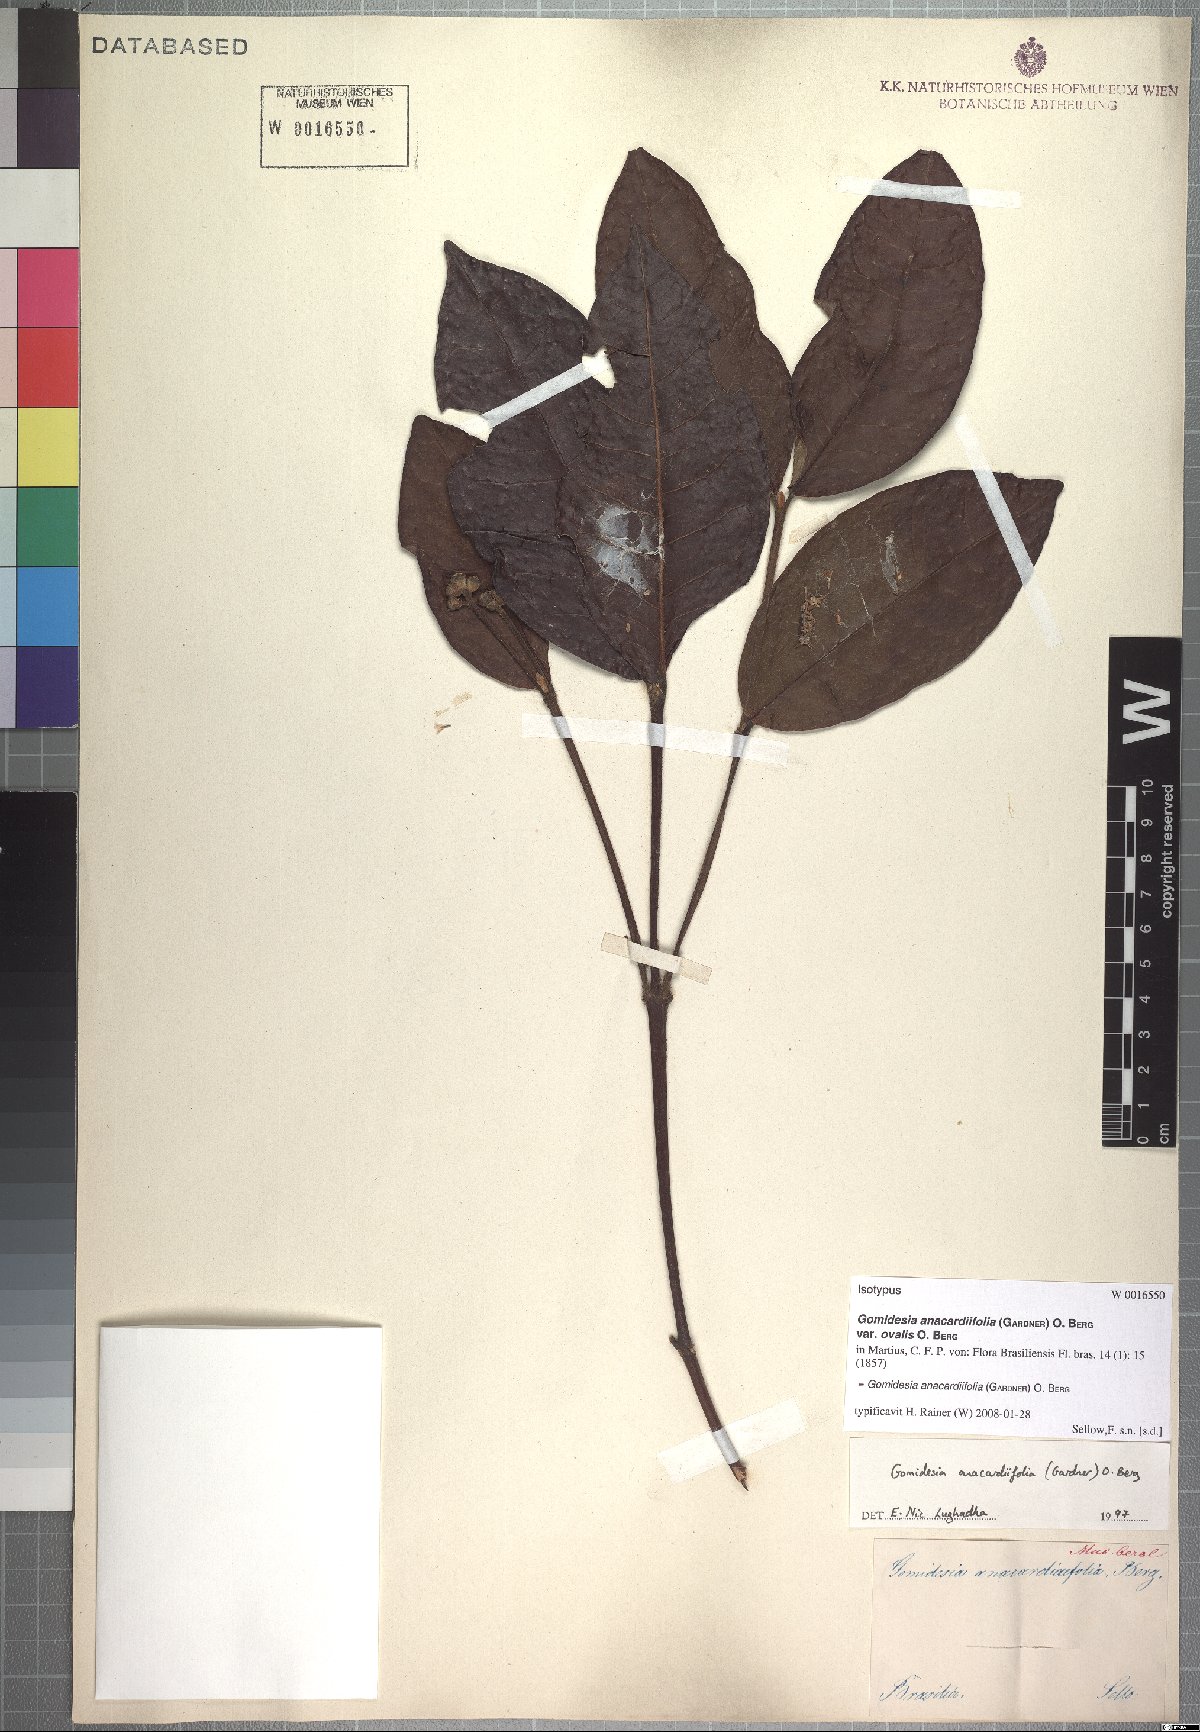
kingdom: Plantae
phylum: Tracheophyta
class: Magnoliopsida
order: Myrtales
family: Myrtaceae
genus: Myrcia
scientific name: Myrcia anacardiifolia
